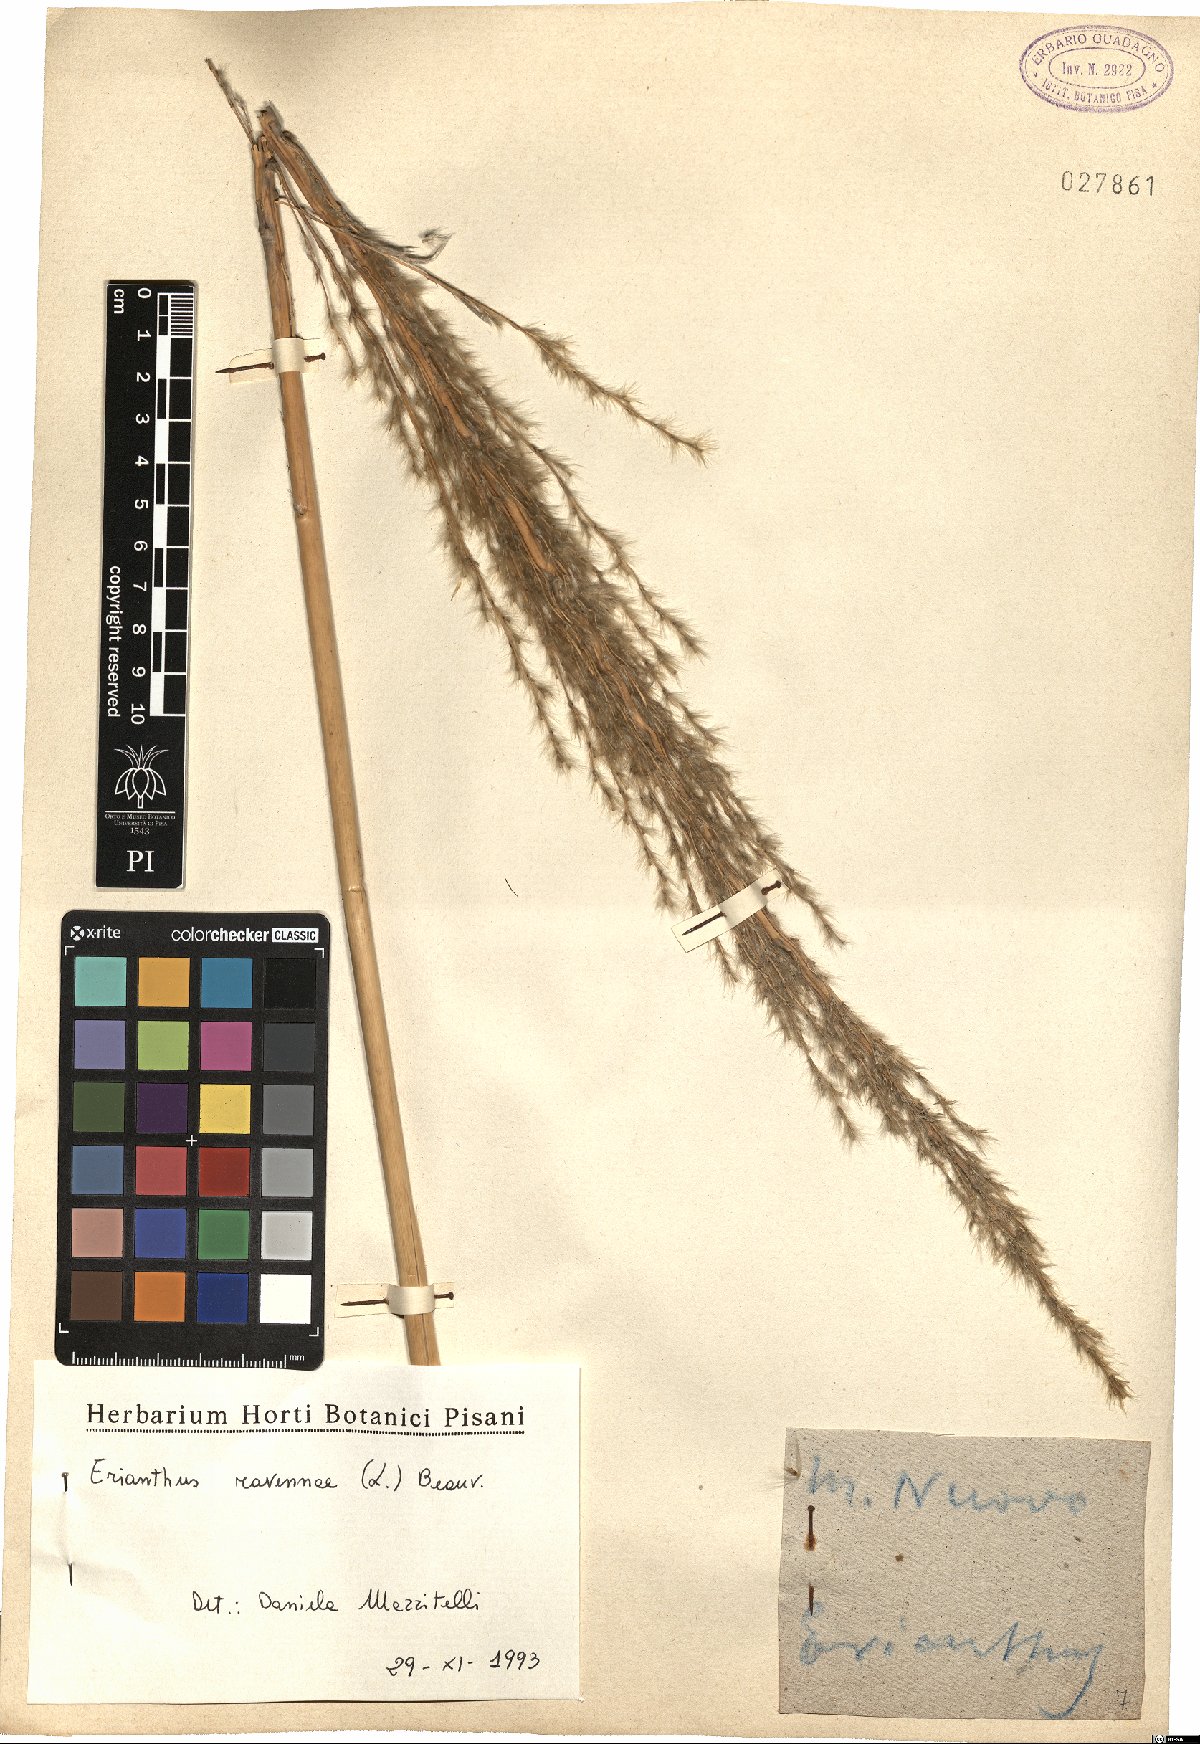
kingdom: Plantae
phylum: Tracheophyta
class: Liliopsida
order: Poales
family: Poaceae
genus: Tripidium
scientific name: Tripidium ravennae
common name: Ravenna grass
